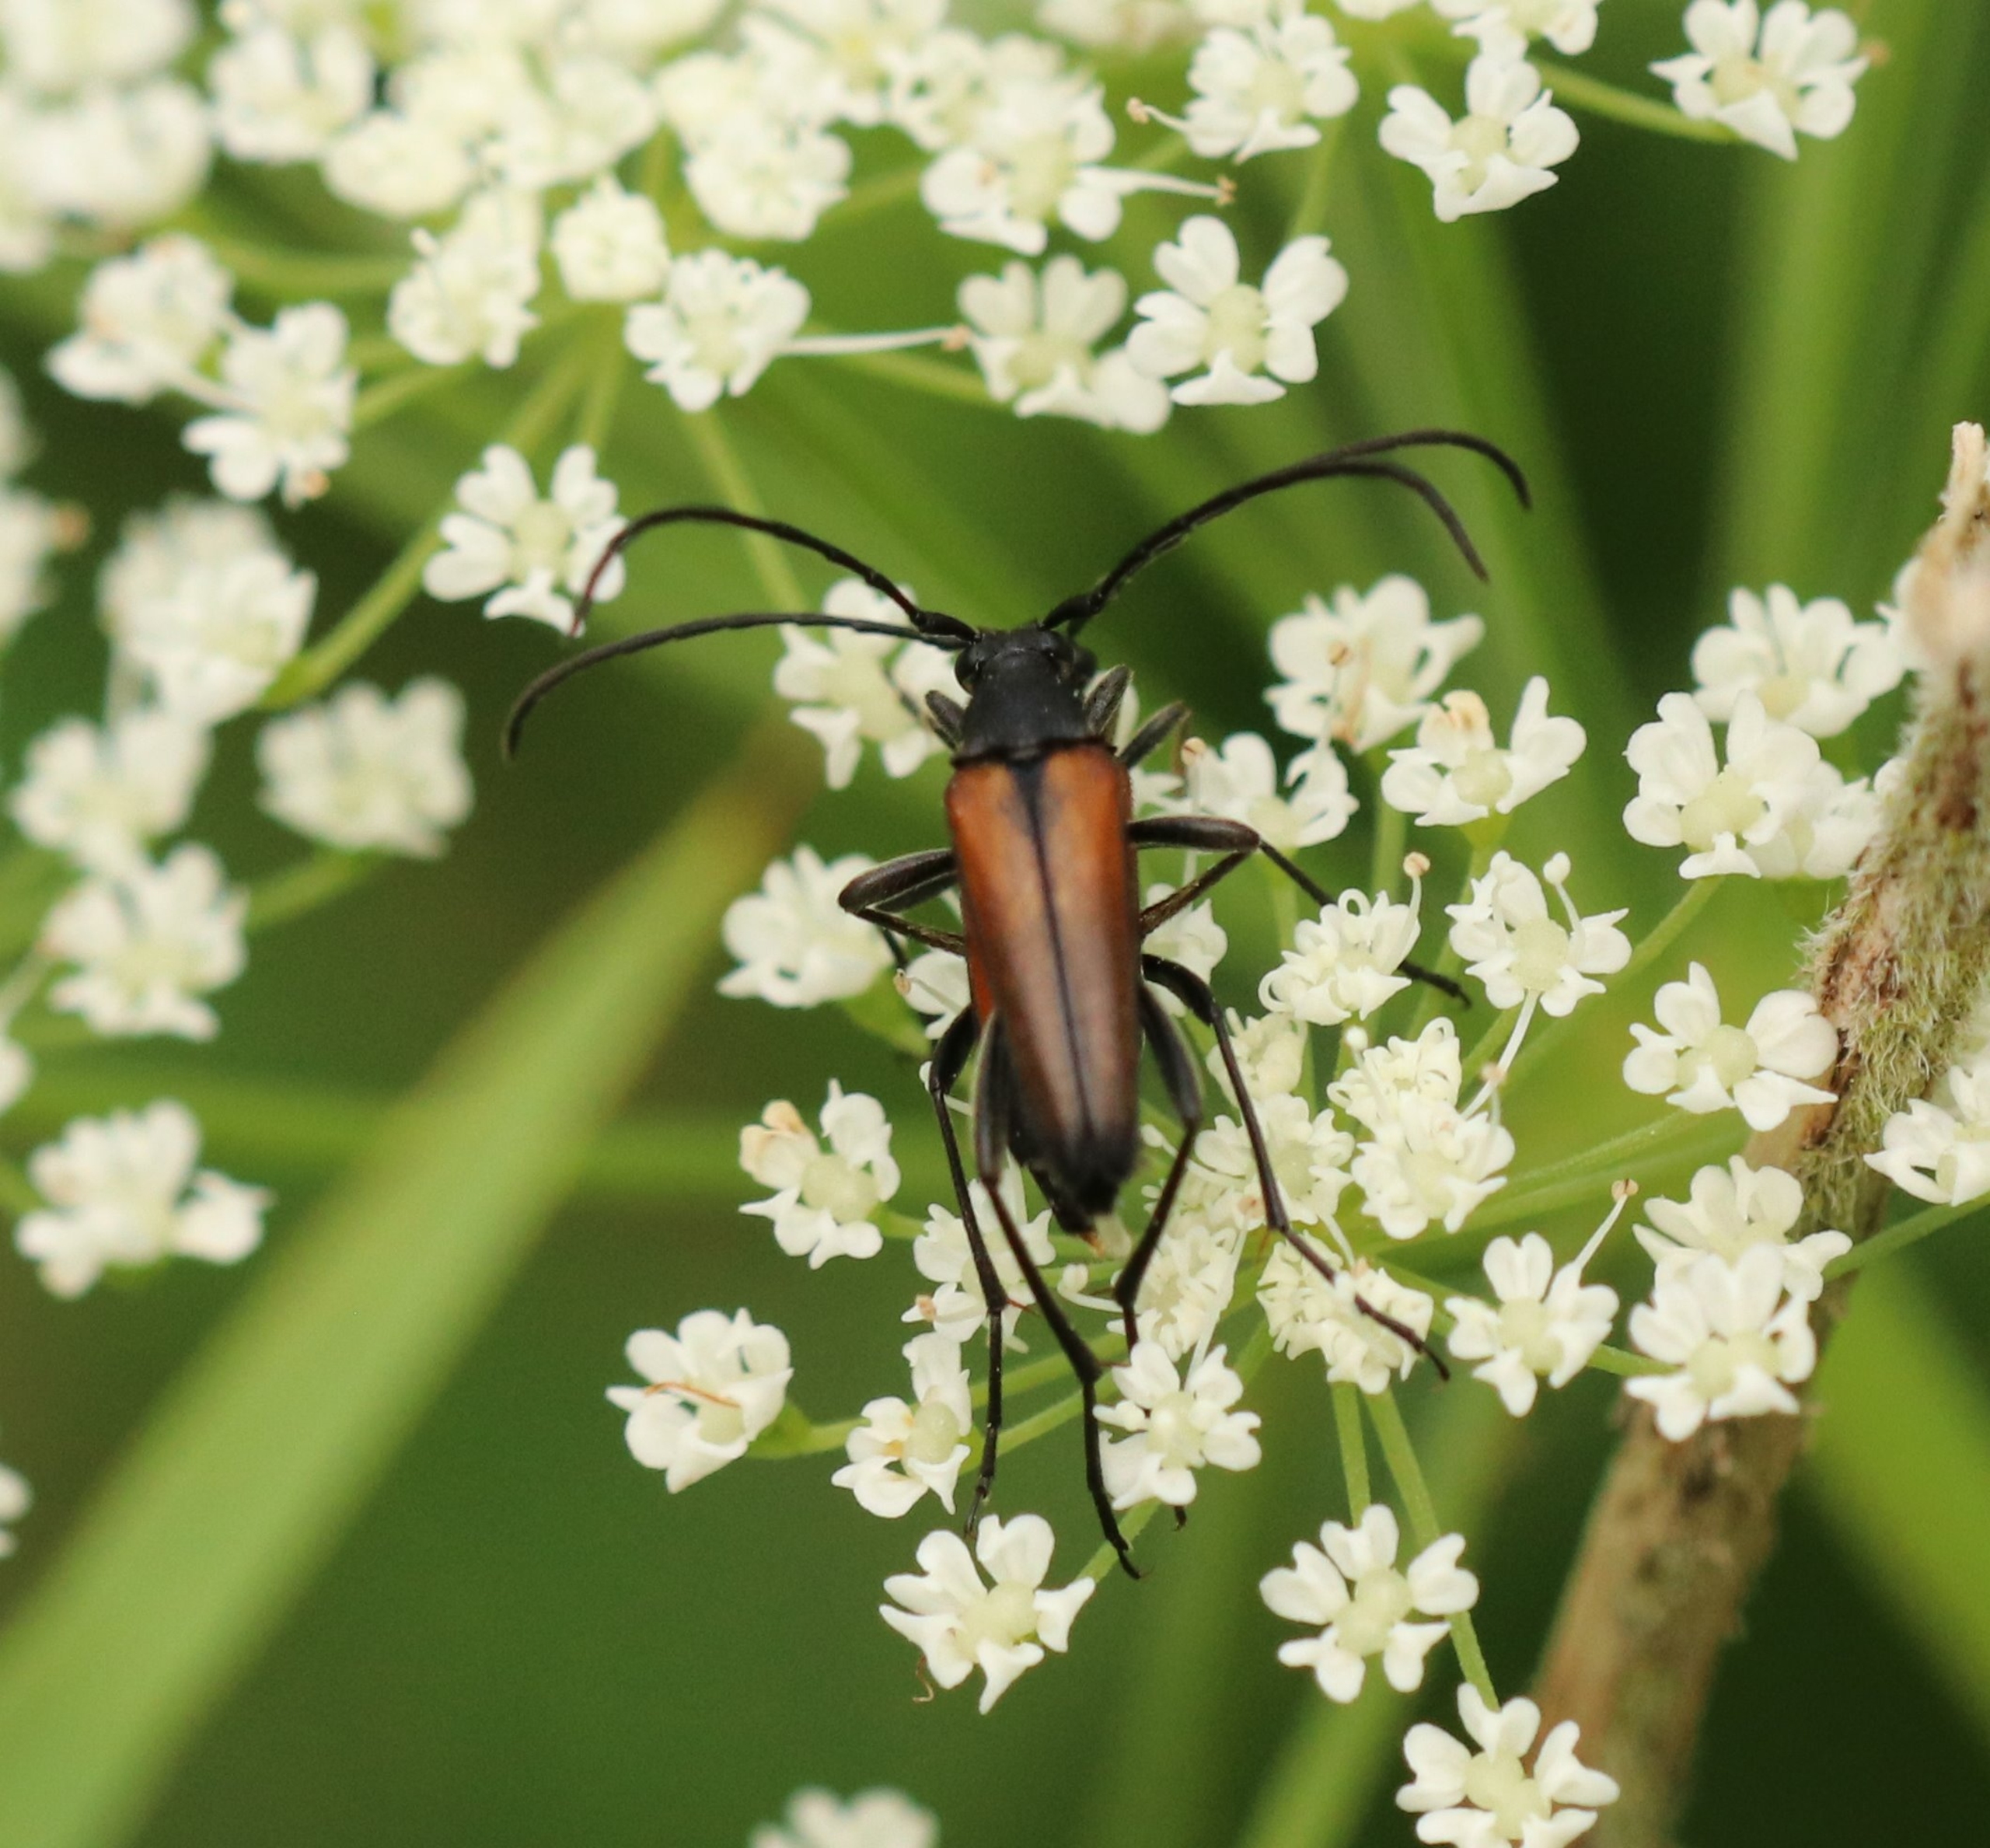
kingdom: Animalia
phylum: Arthropoda
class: Insecta
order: Coleoptera
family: Cerambycidae
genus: Stenurella
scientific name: Stenurella melanura
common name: Sortsømmet blomsterbuk
